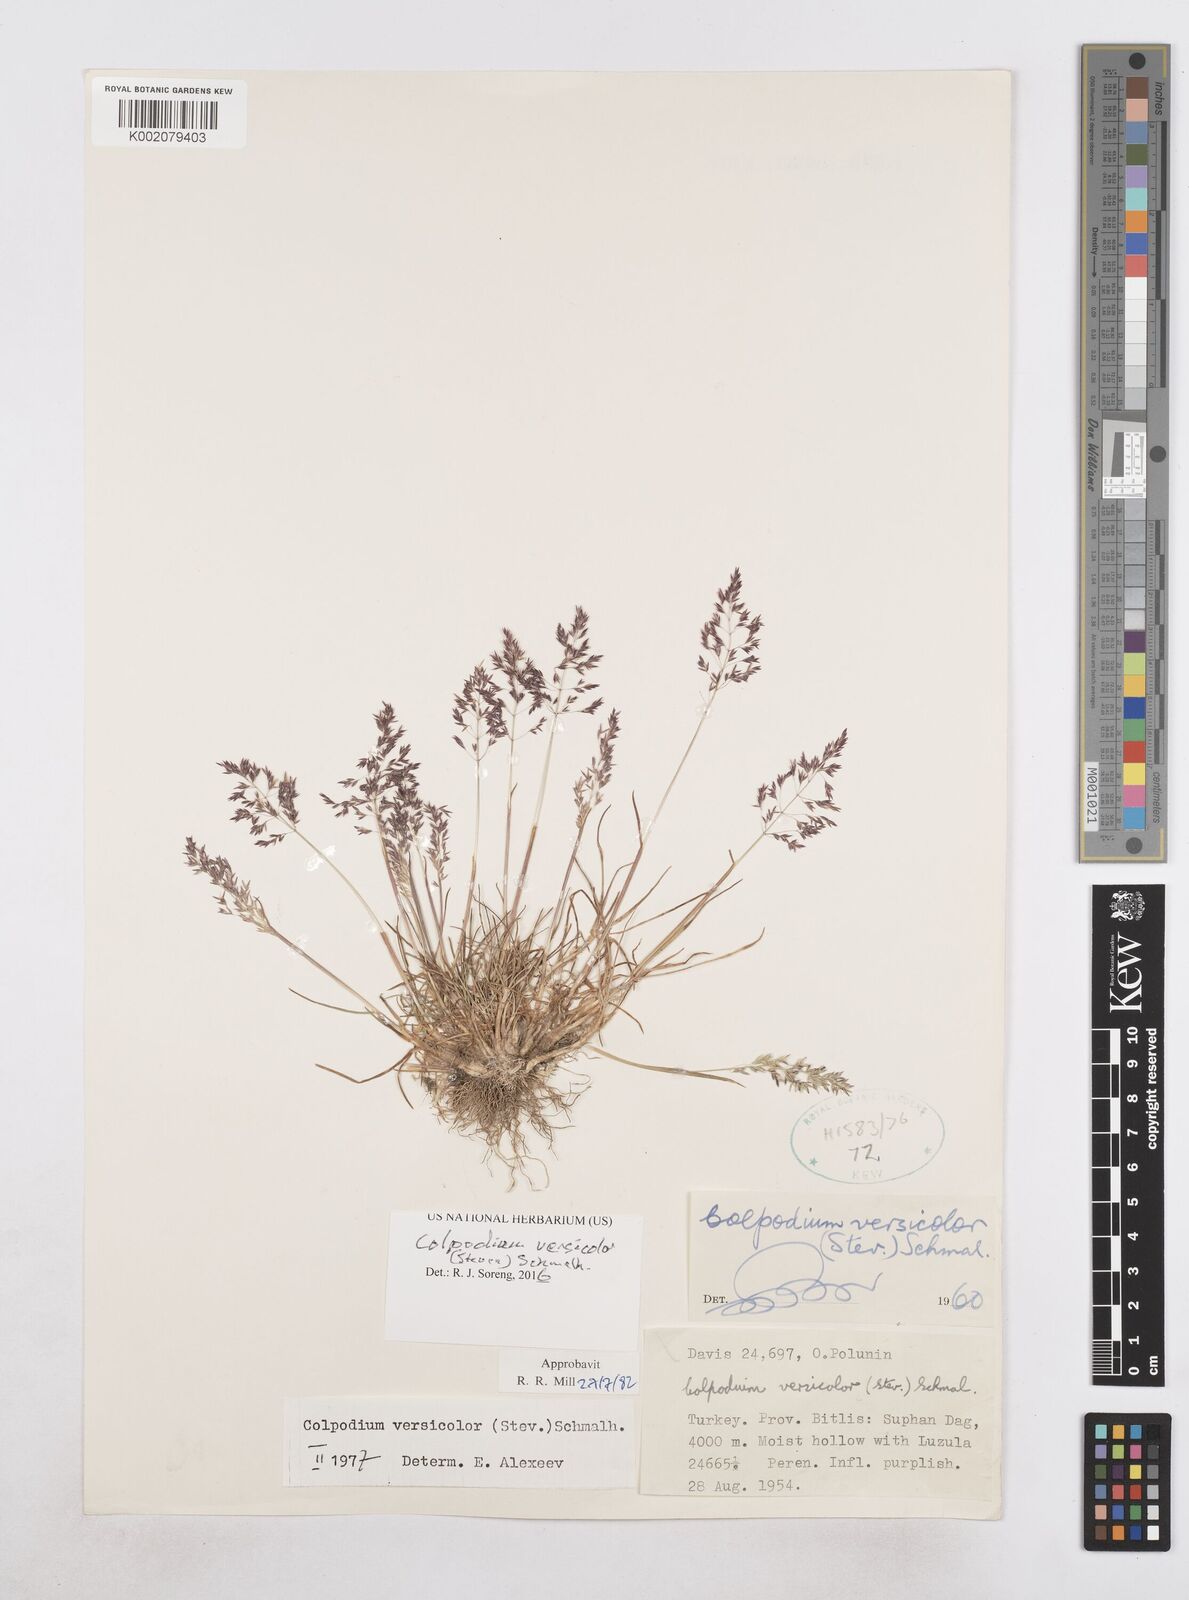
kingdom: Plantae
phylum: Tracheophyta
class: Liliopsida
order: Poales
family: Poaceae
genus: Colpodium
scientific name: Colpodium versicolor
